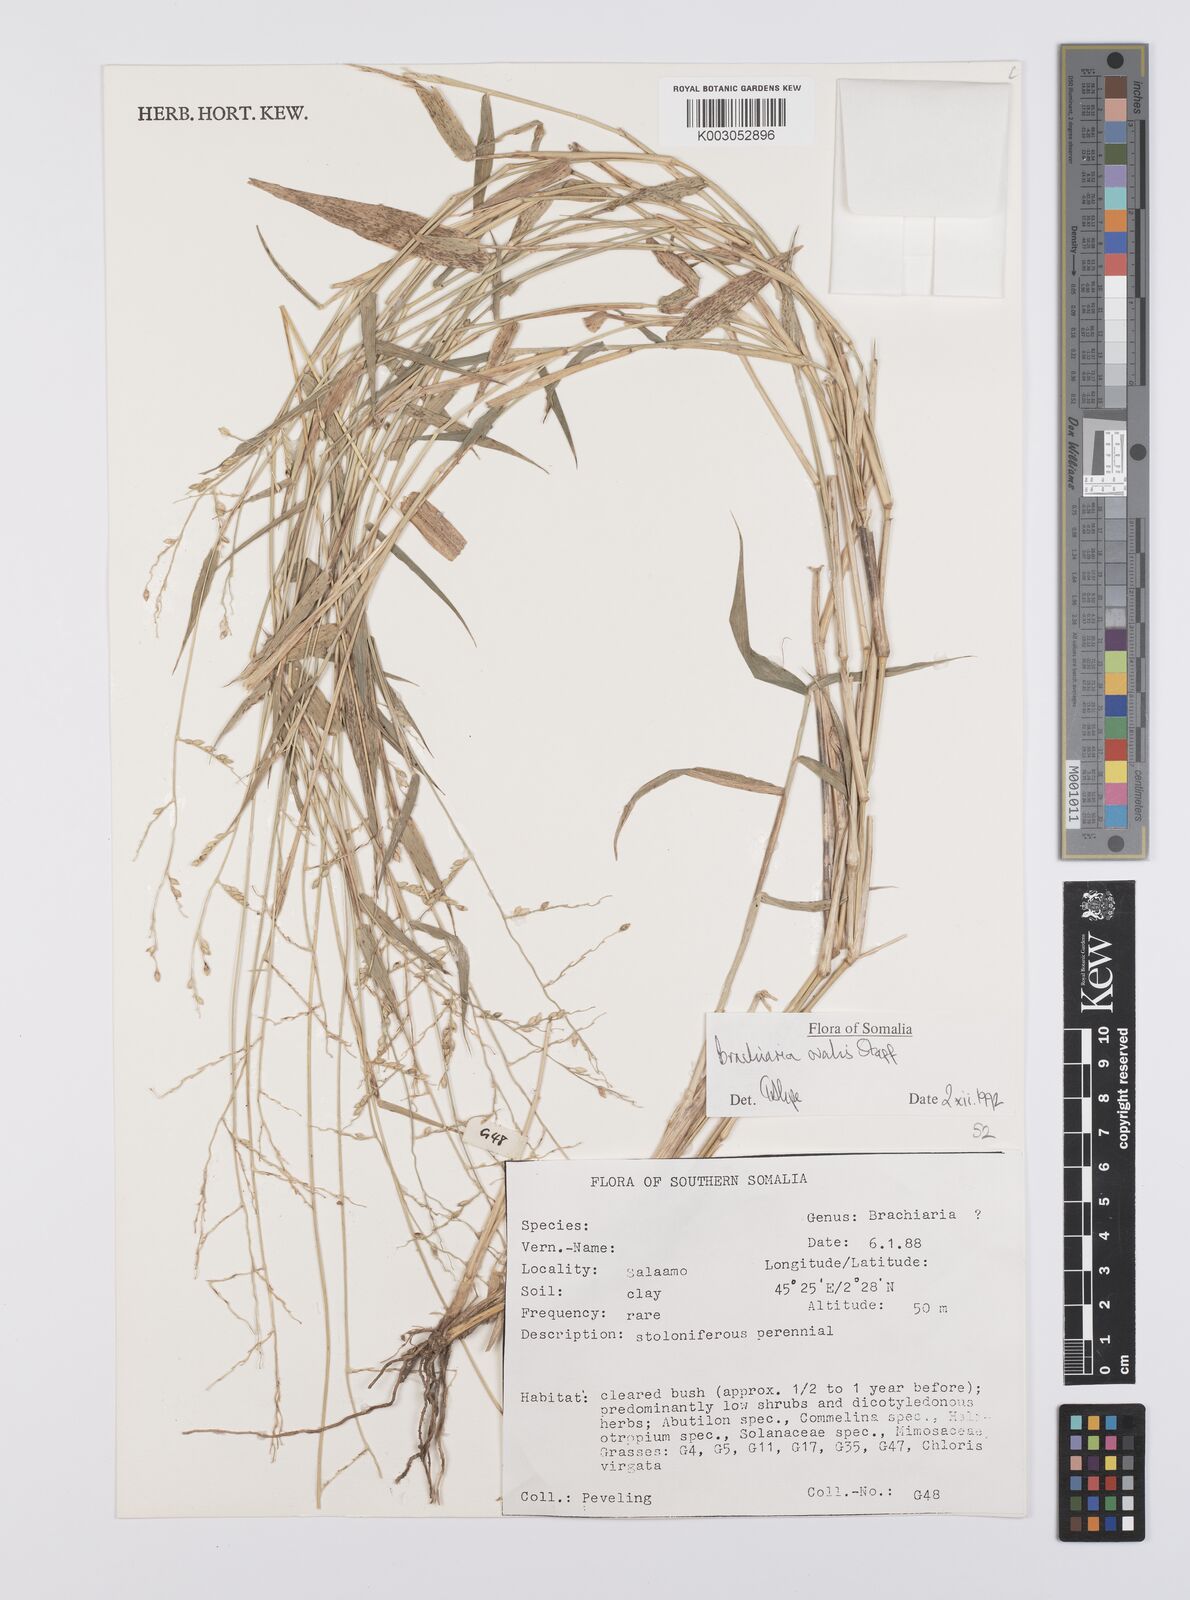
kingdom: Plantae
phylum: Tracheophyta
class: Liliopsida
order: Poales
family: Poaceae
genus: Urochloa
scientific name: Urochloa ovalis
